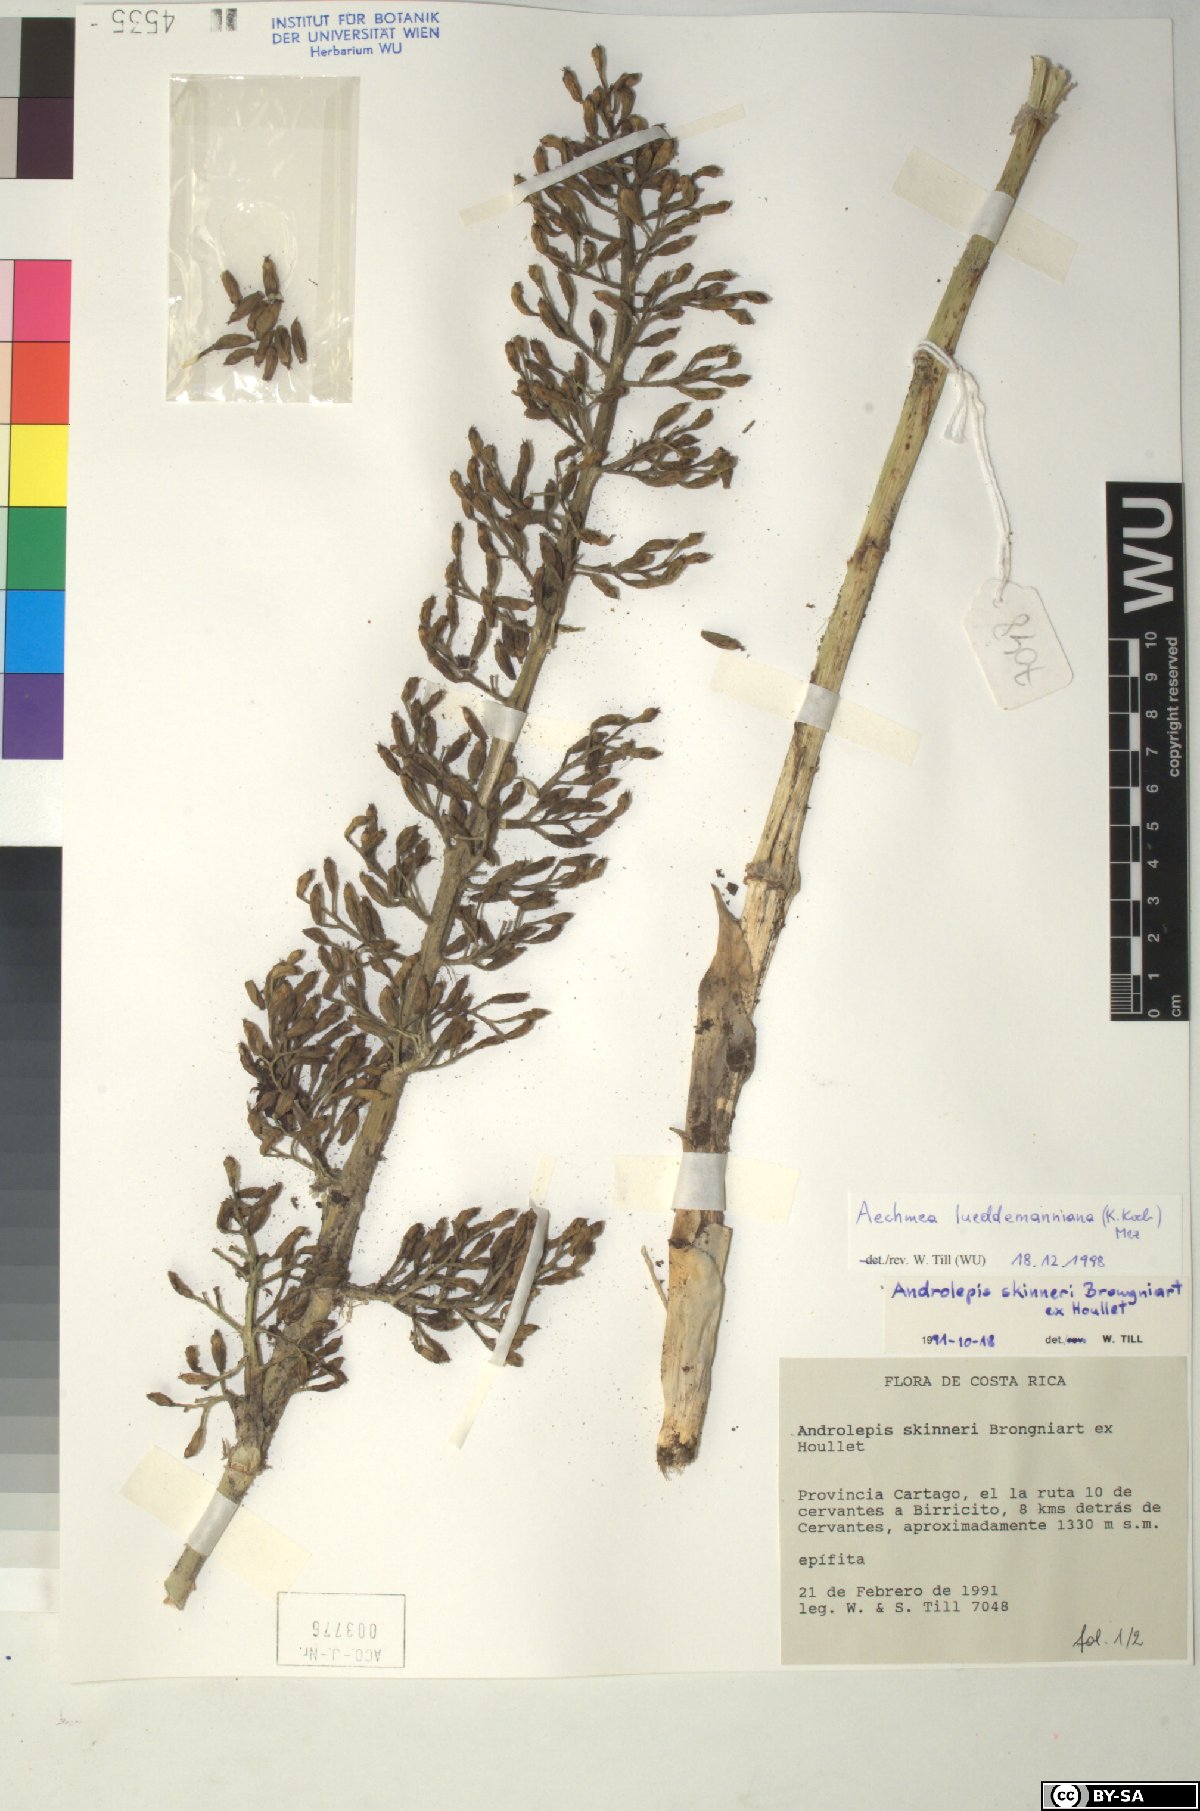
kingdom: Plantae
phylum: Tracheophyta
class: Liliopsida
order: Poales
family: Bromeliaceae
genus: Aechmea
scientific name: Aechmea lueddemanniana
